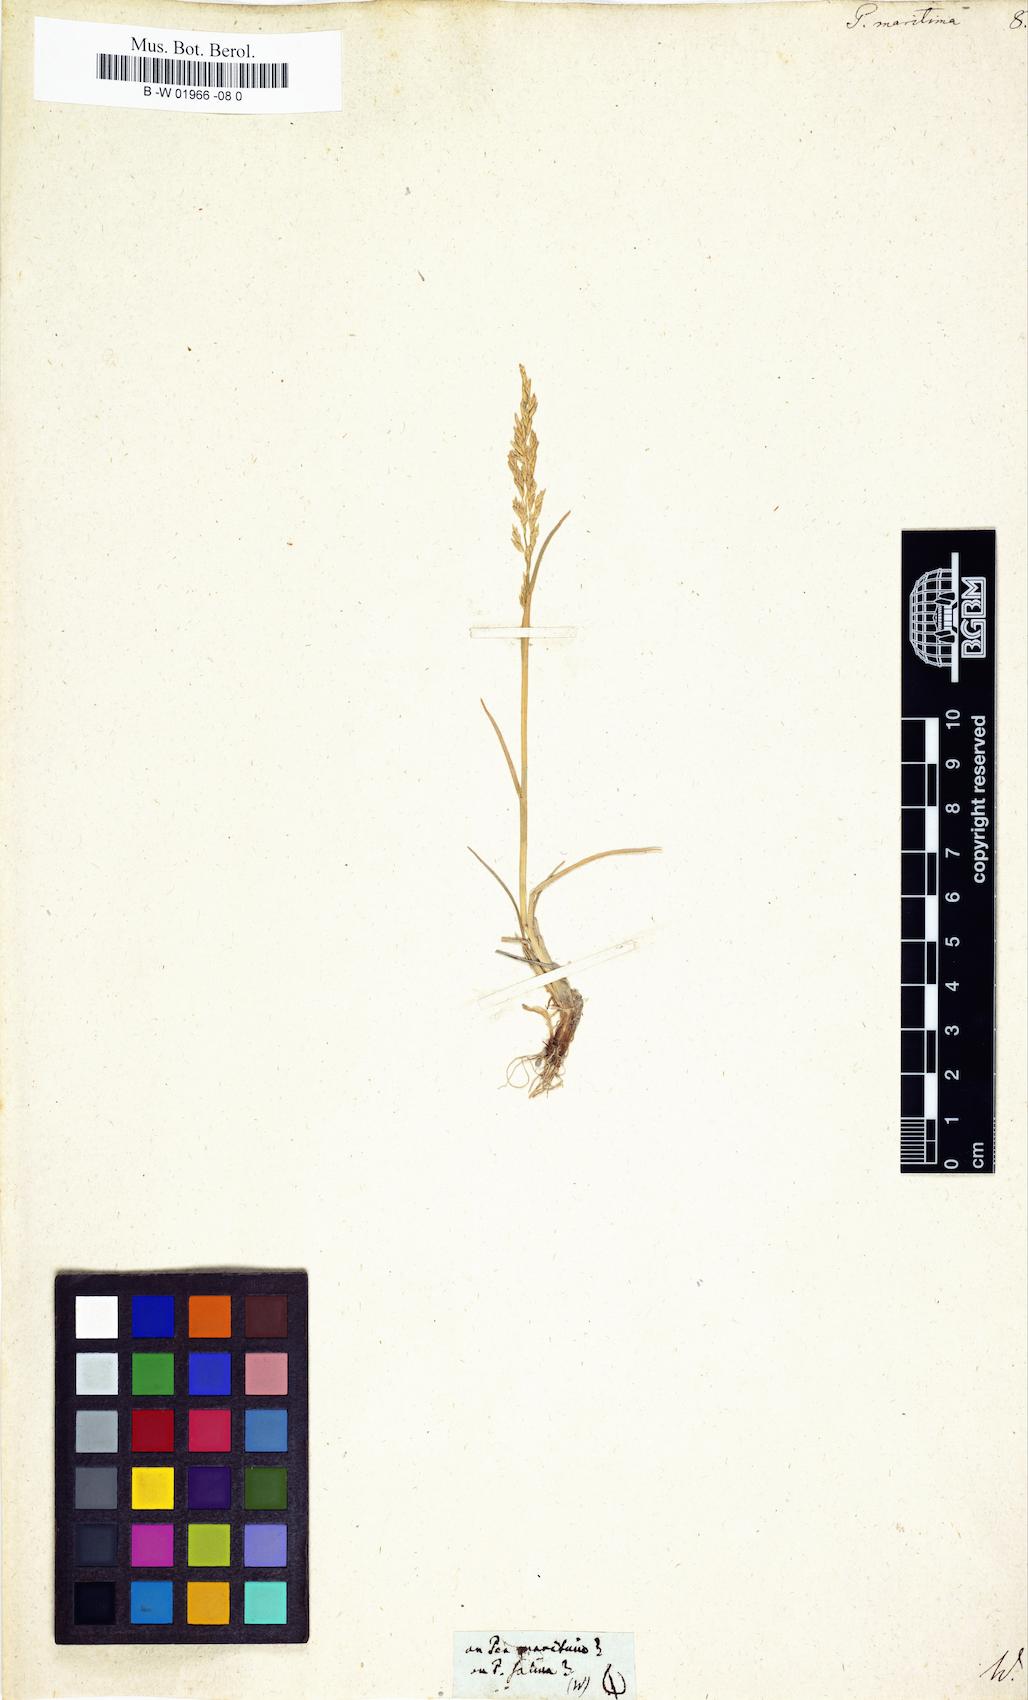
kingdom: Plantae
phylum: Tracheophyta
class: Liliopsida
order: Poales
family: Poaceae
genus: Puccinellia
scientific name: Puccinellia maritima
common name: Common saltmarsh grass
